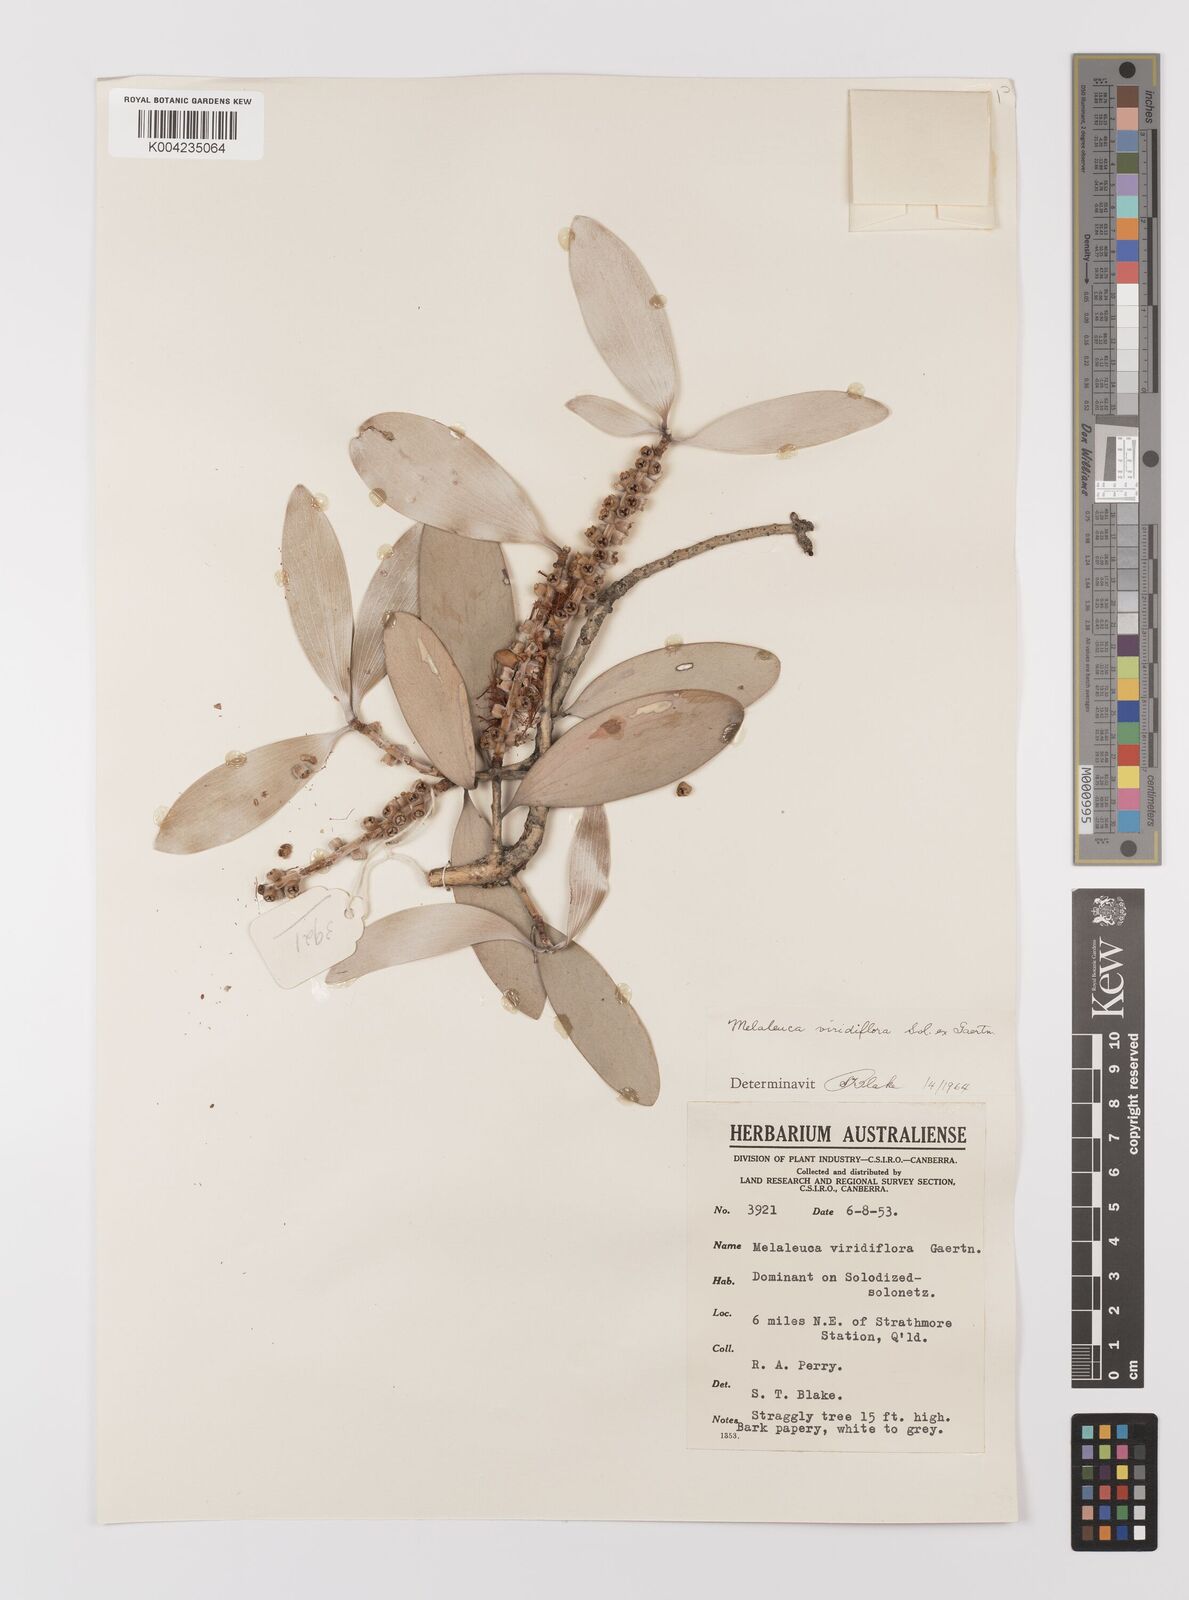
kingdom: Plantae
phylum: Tracheophyta
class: Magnoliopsida
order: Myrtales
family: Myrtaceae
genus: Melaleuca
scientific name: Melaleuca viridiflora
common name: Brown-leaved paperbark
